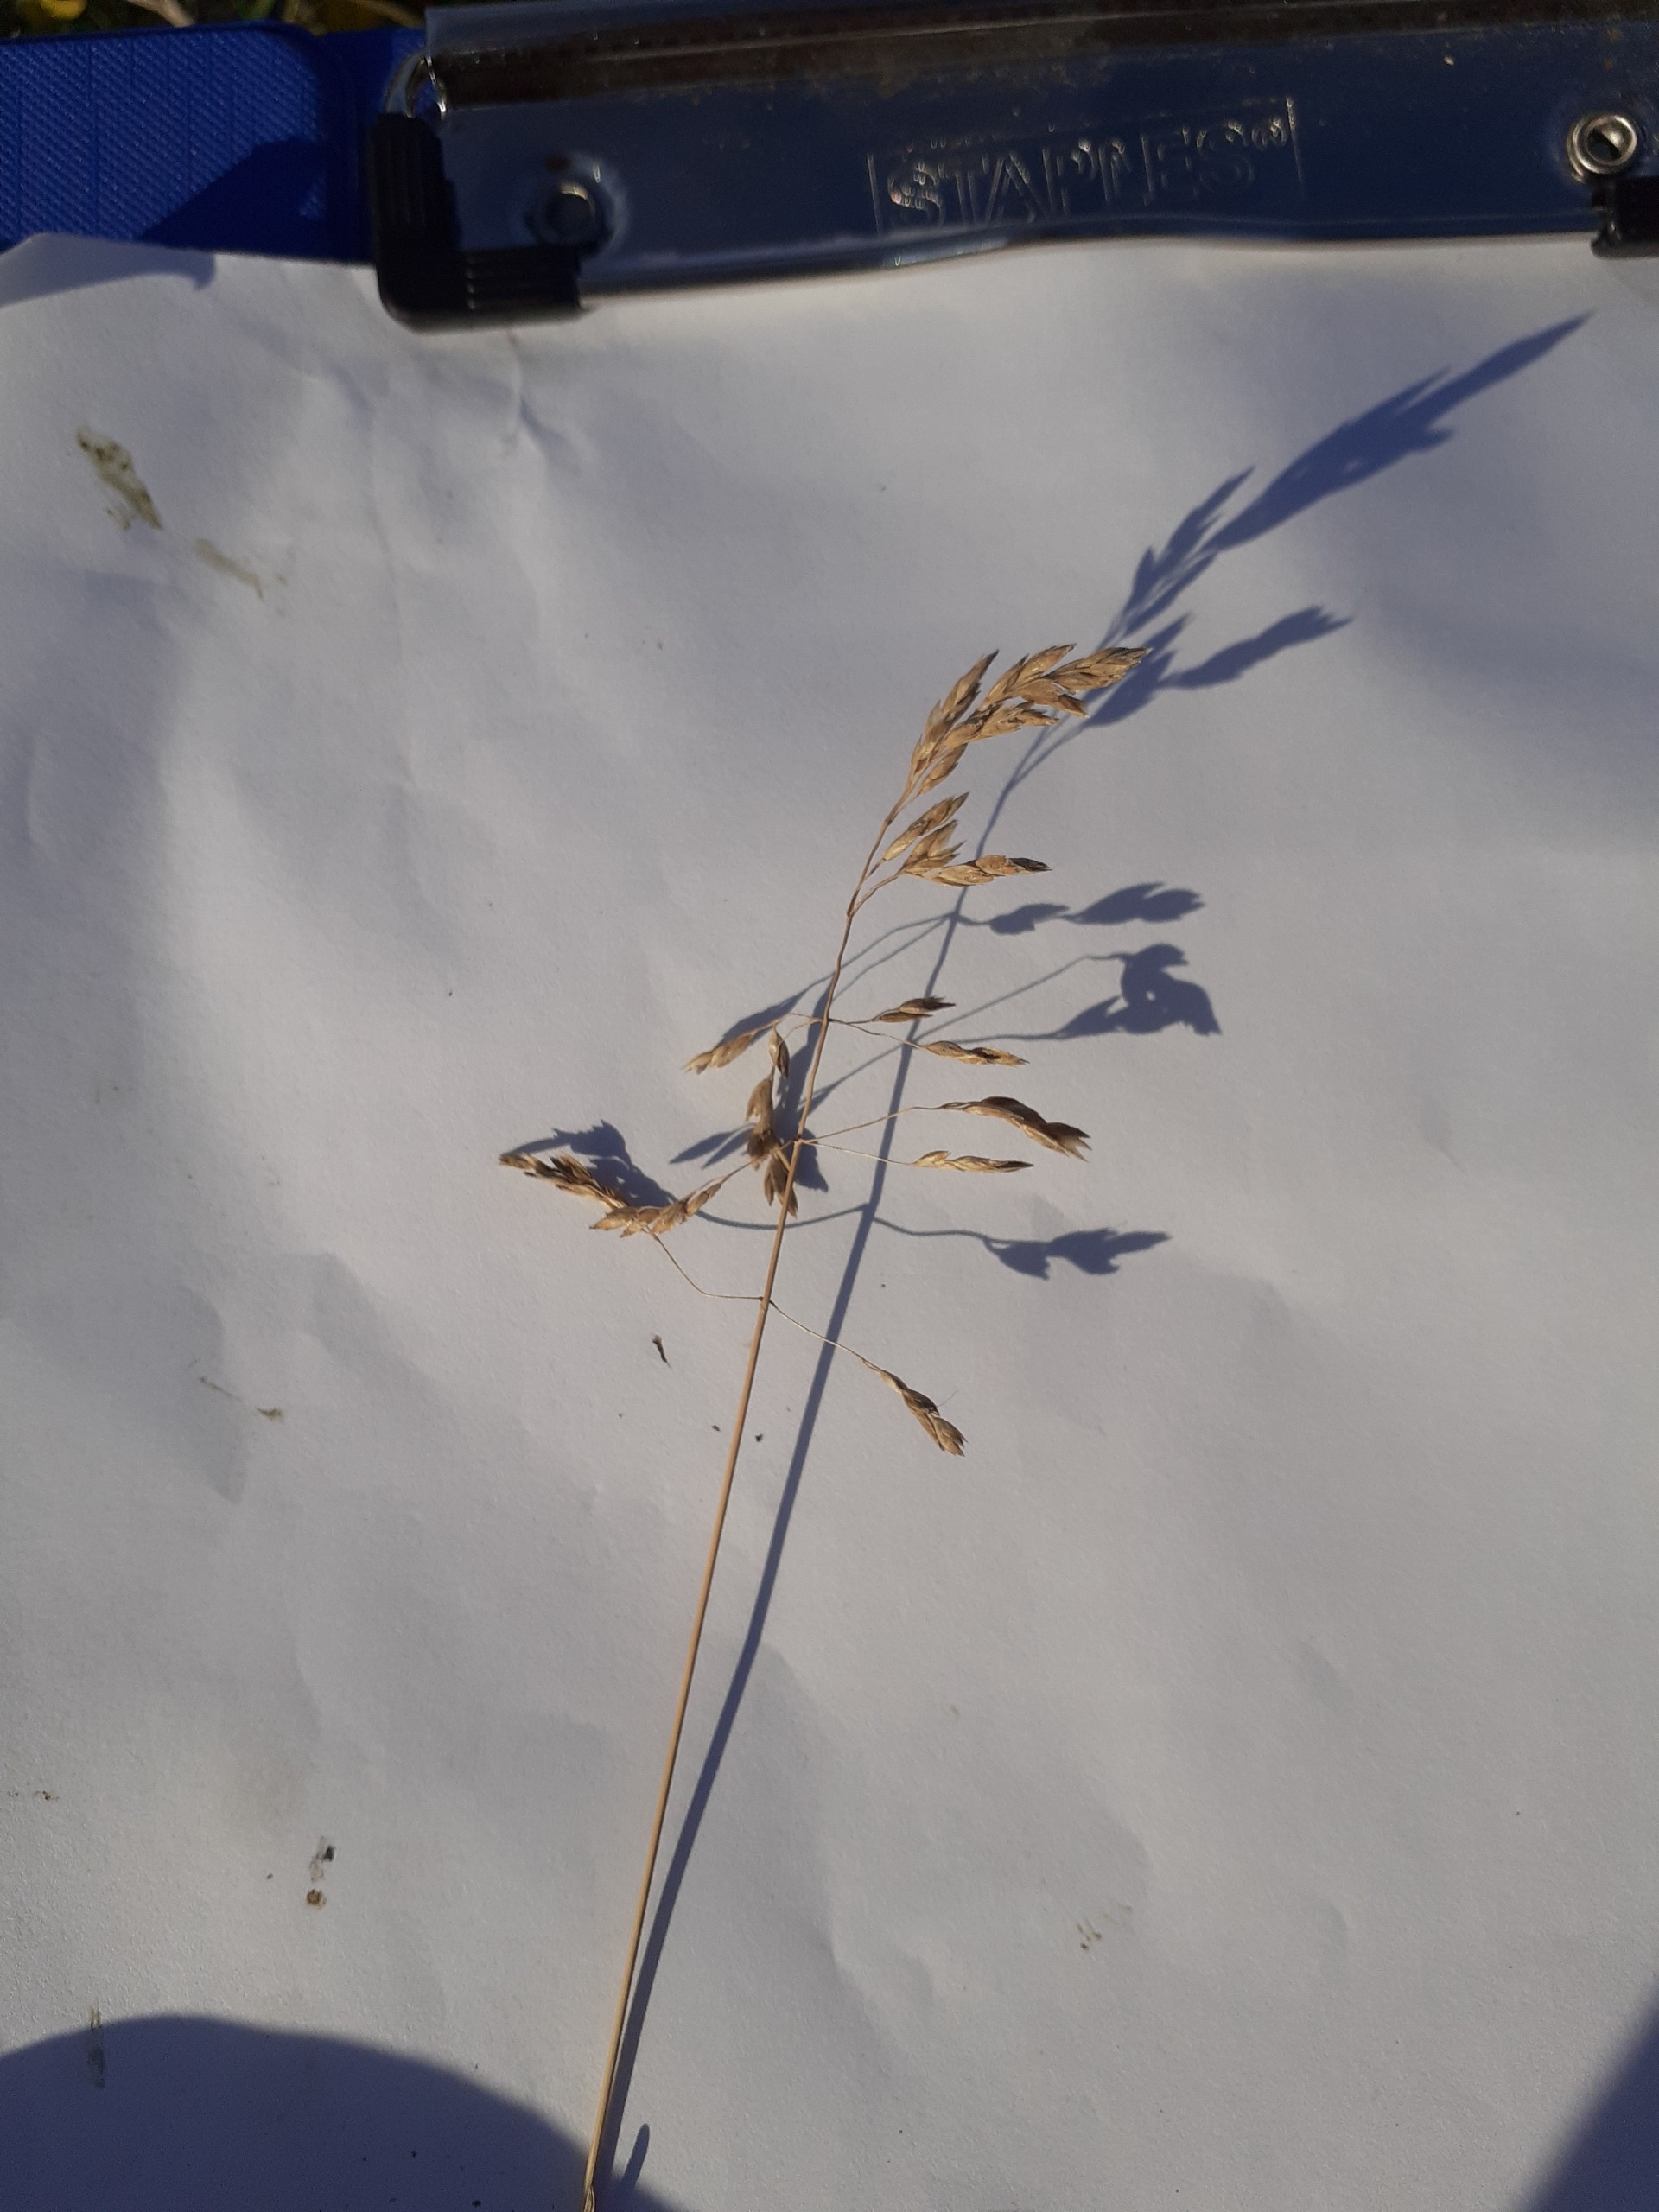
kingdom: Plantae
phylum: Tracheophyta
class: Liliopsida
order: Poales
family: Poaceae
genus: Poa
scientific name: Poa pratensis
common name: Eng-rapgræs
